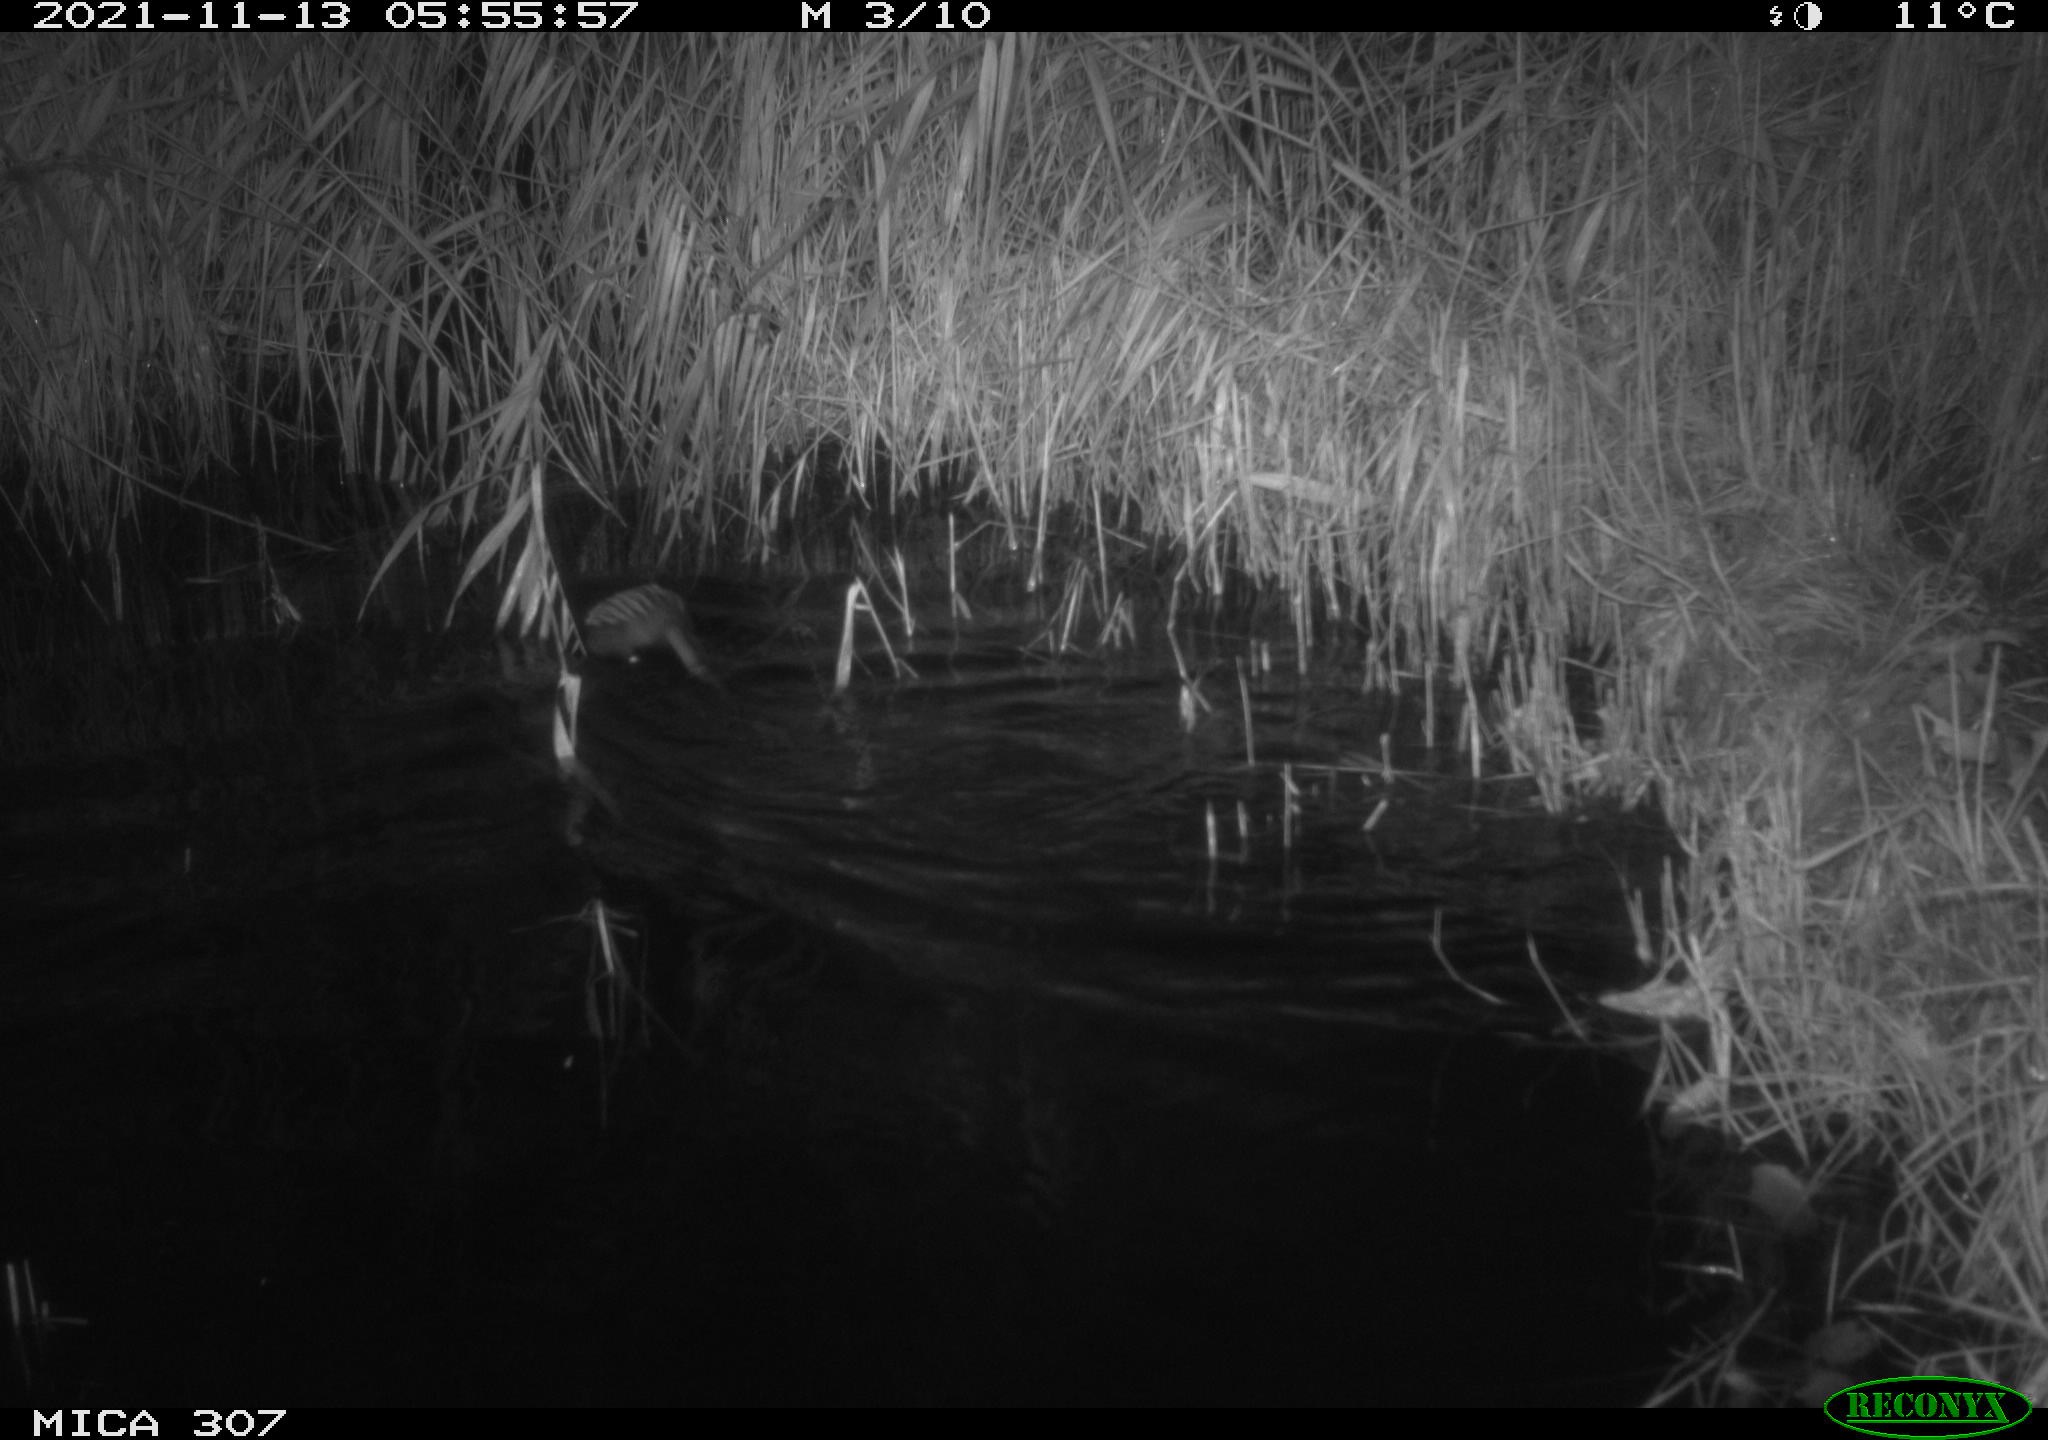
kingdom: Animalia
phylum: Chordata
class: Mammalia
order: Rodentia
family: Cricetidae
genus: Ondatra
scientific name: Ondatra zibethicus
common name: Muskrat
